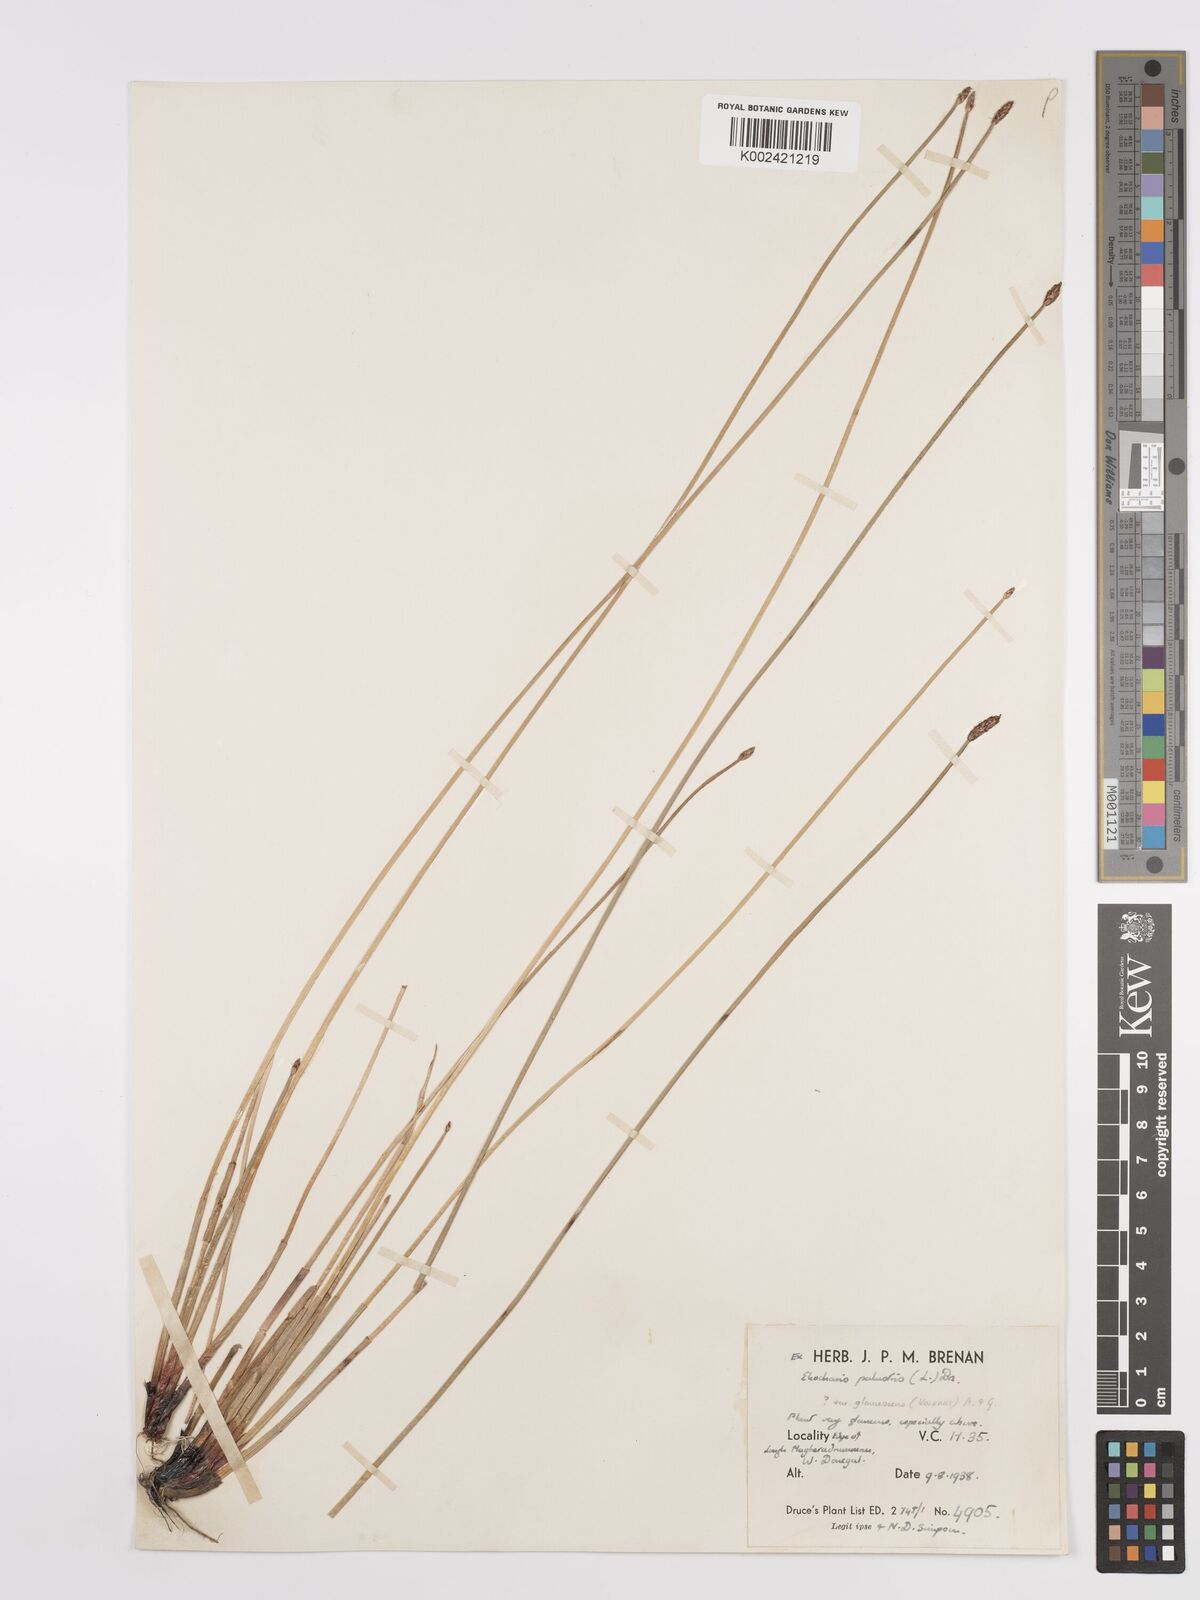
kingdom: Plantae
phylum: Tracheophyta
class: Liliopsida
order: Poales
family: Cyperaceae
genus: Eleocharis
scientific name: Eleocharis palustris
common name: Common spike-rush
